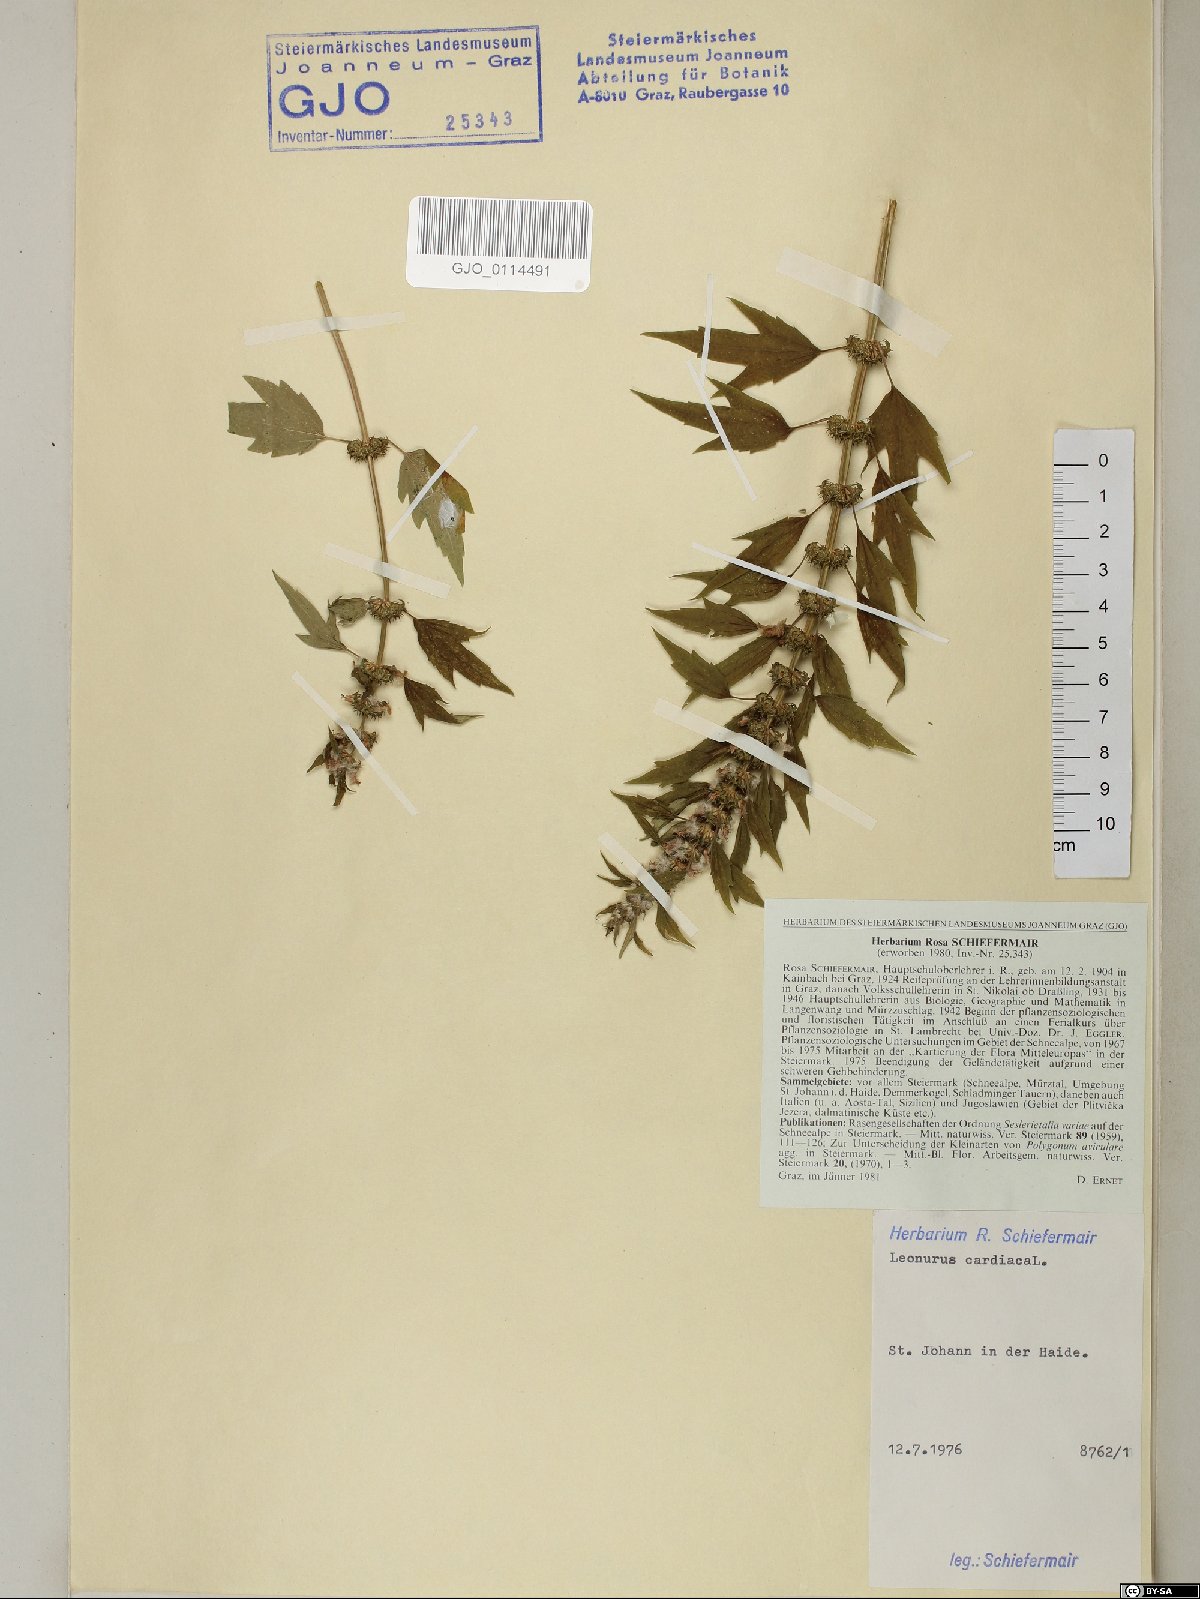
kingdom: Plantae
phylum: Tracheophyta
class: Magnoliopsida
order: Lamiales
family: Lamiaceae
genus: Leonurus
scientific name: Leonurus cardiaca
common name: Motherwort
